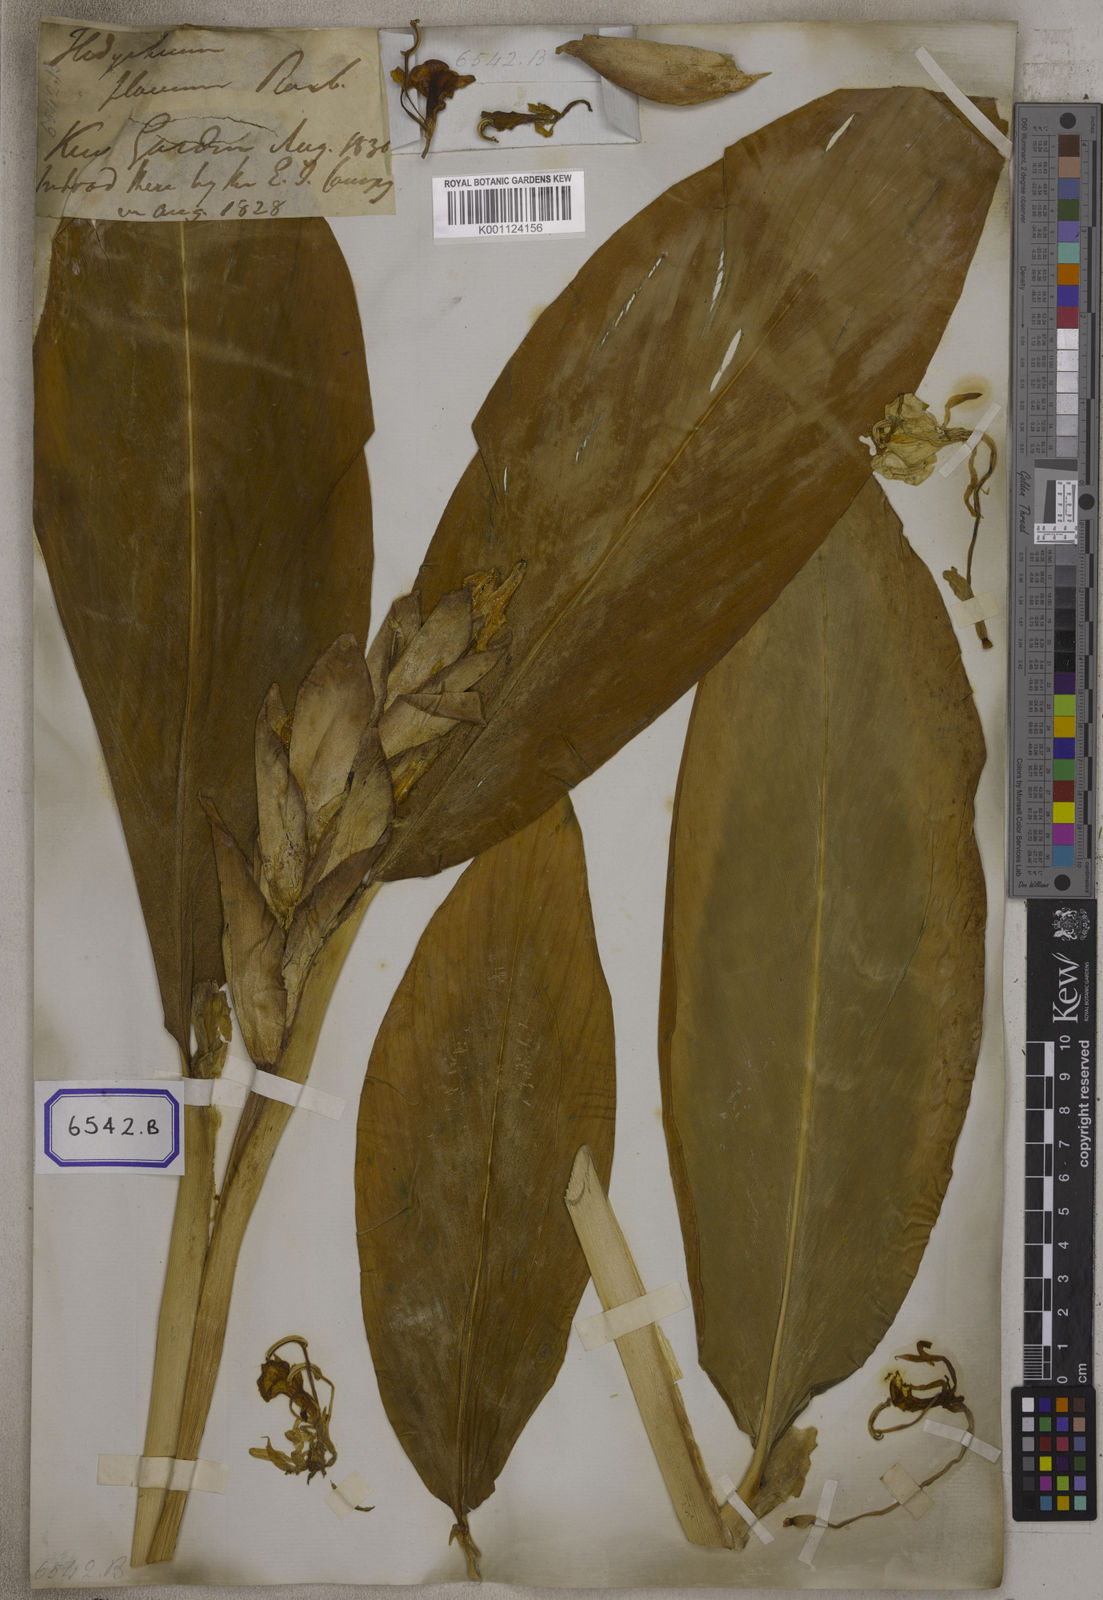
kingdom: Plantae
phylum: Tracheophyta
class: Liliopsida
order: Zingiberales
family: Zingiberaceae
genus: Hedychium
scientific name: Hedychium flavum
